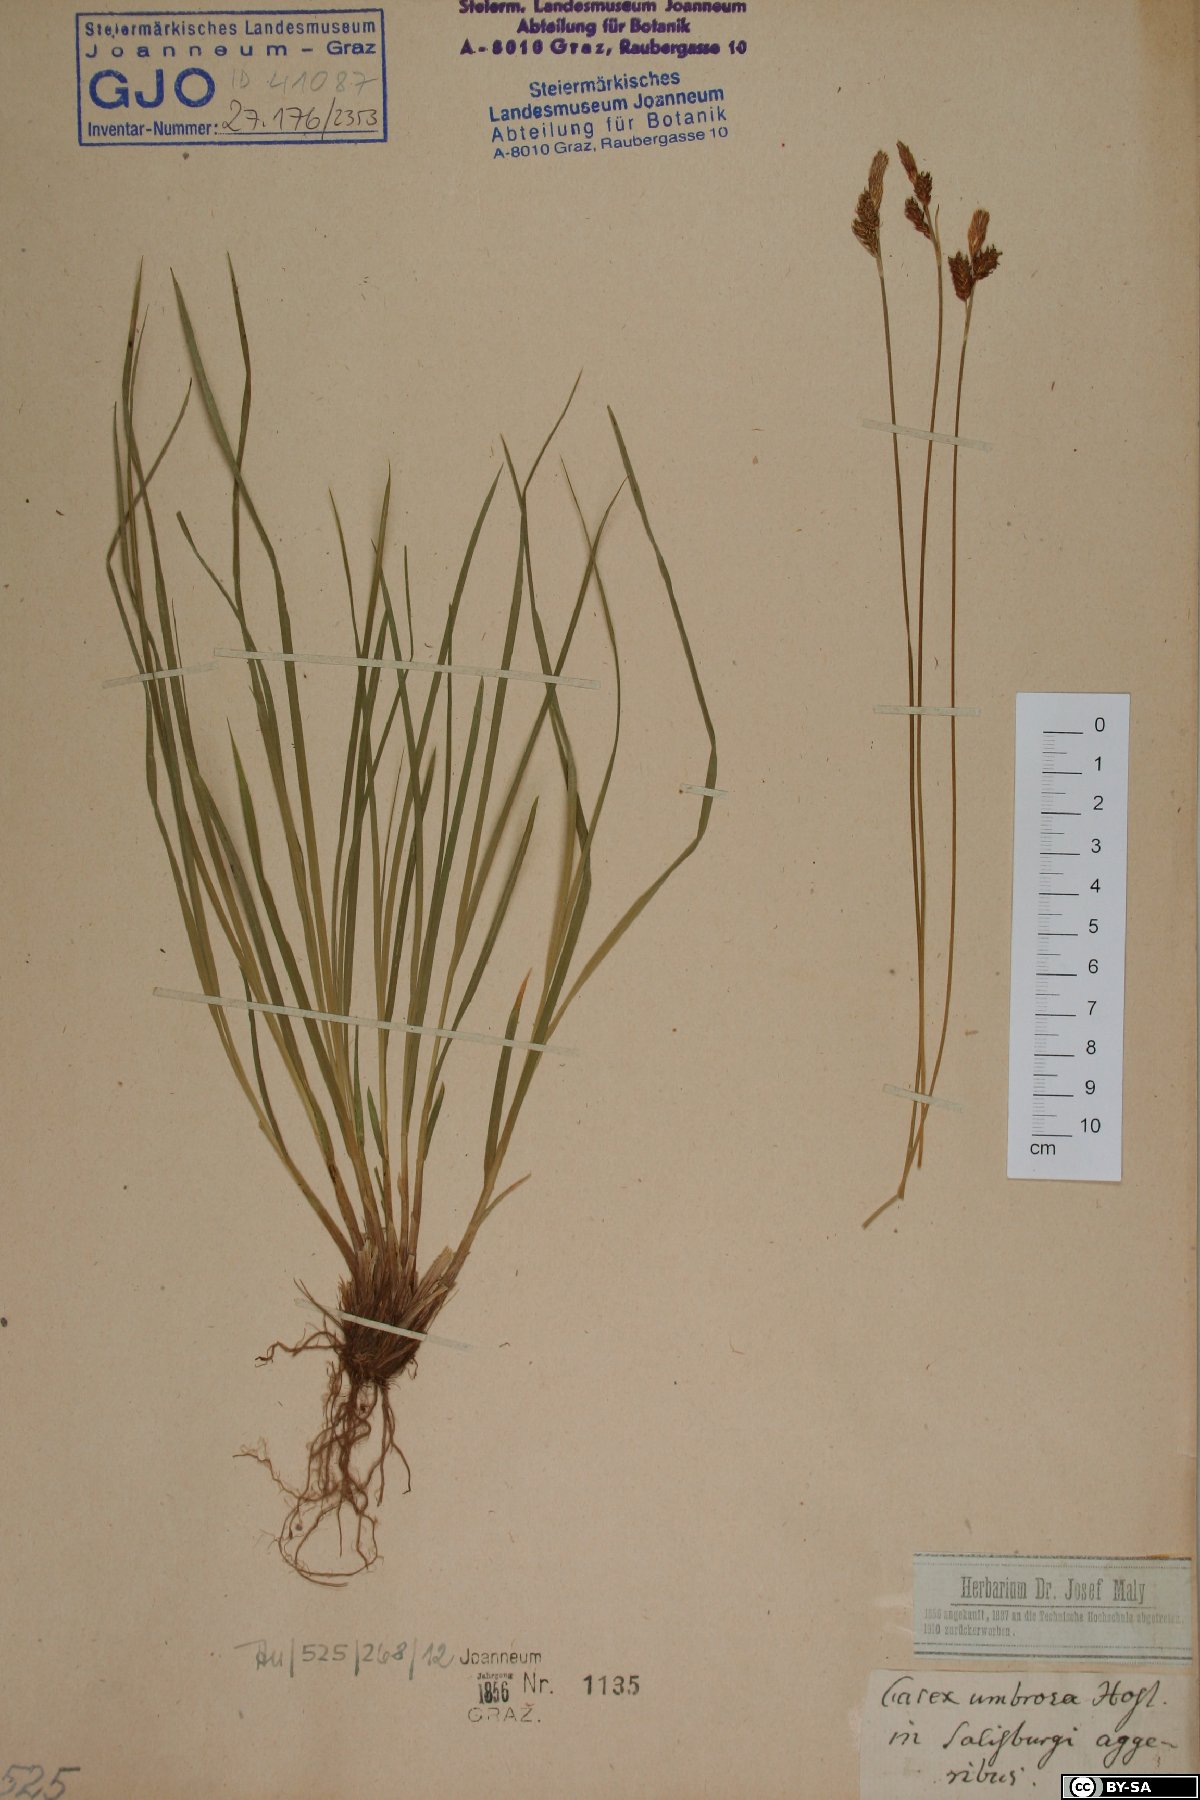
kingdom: Plantae
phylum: Tracheophyta
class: Liliopsida
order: Poales
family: Cyperaceae
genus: Carex
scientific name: Carex umbrosa
